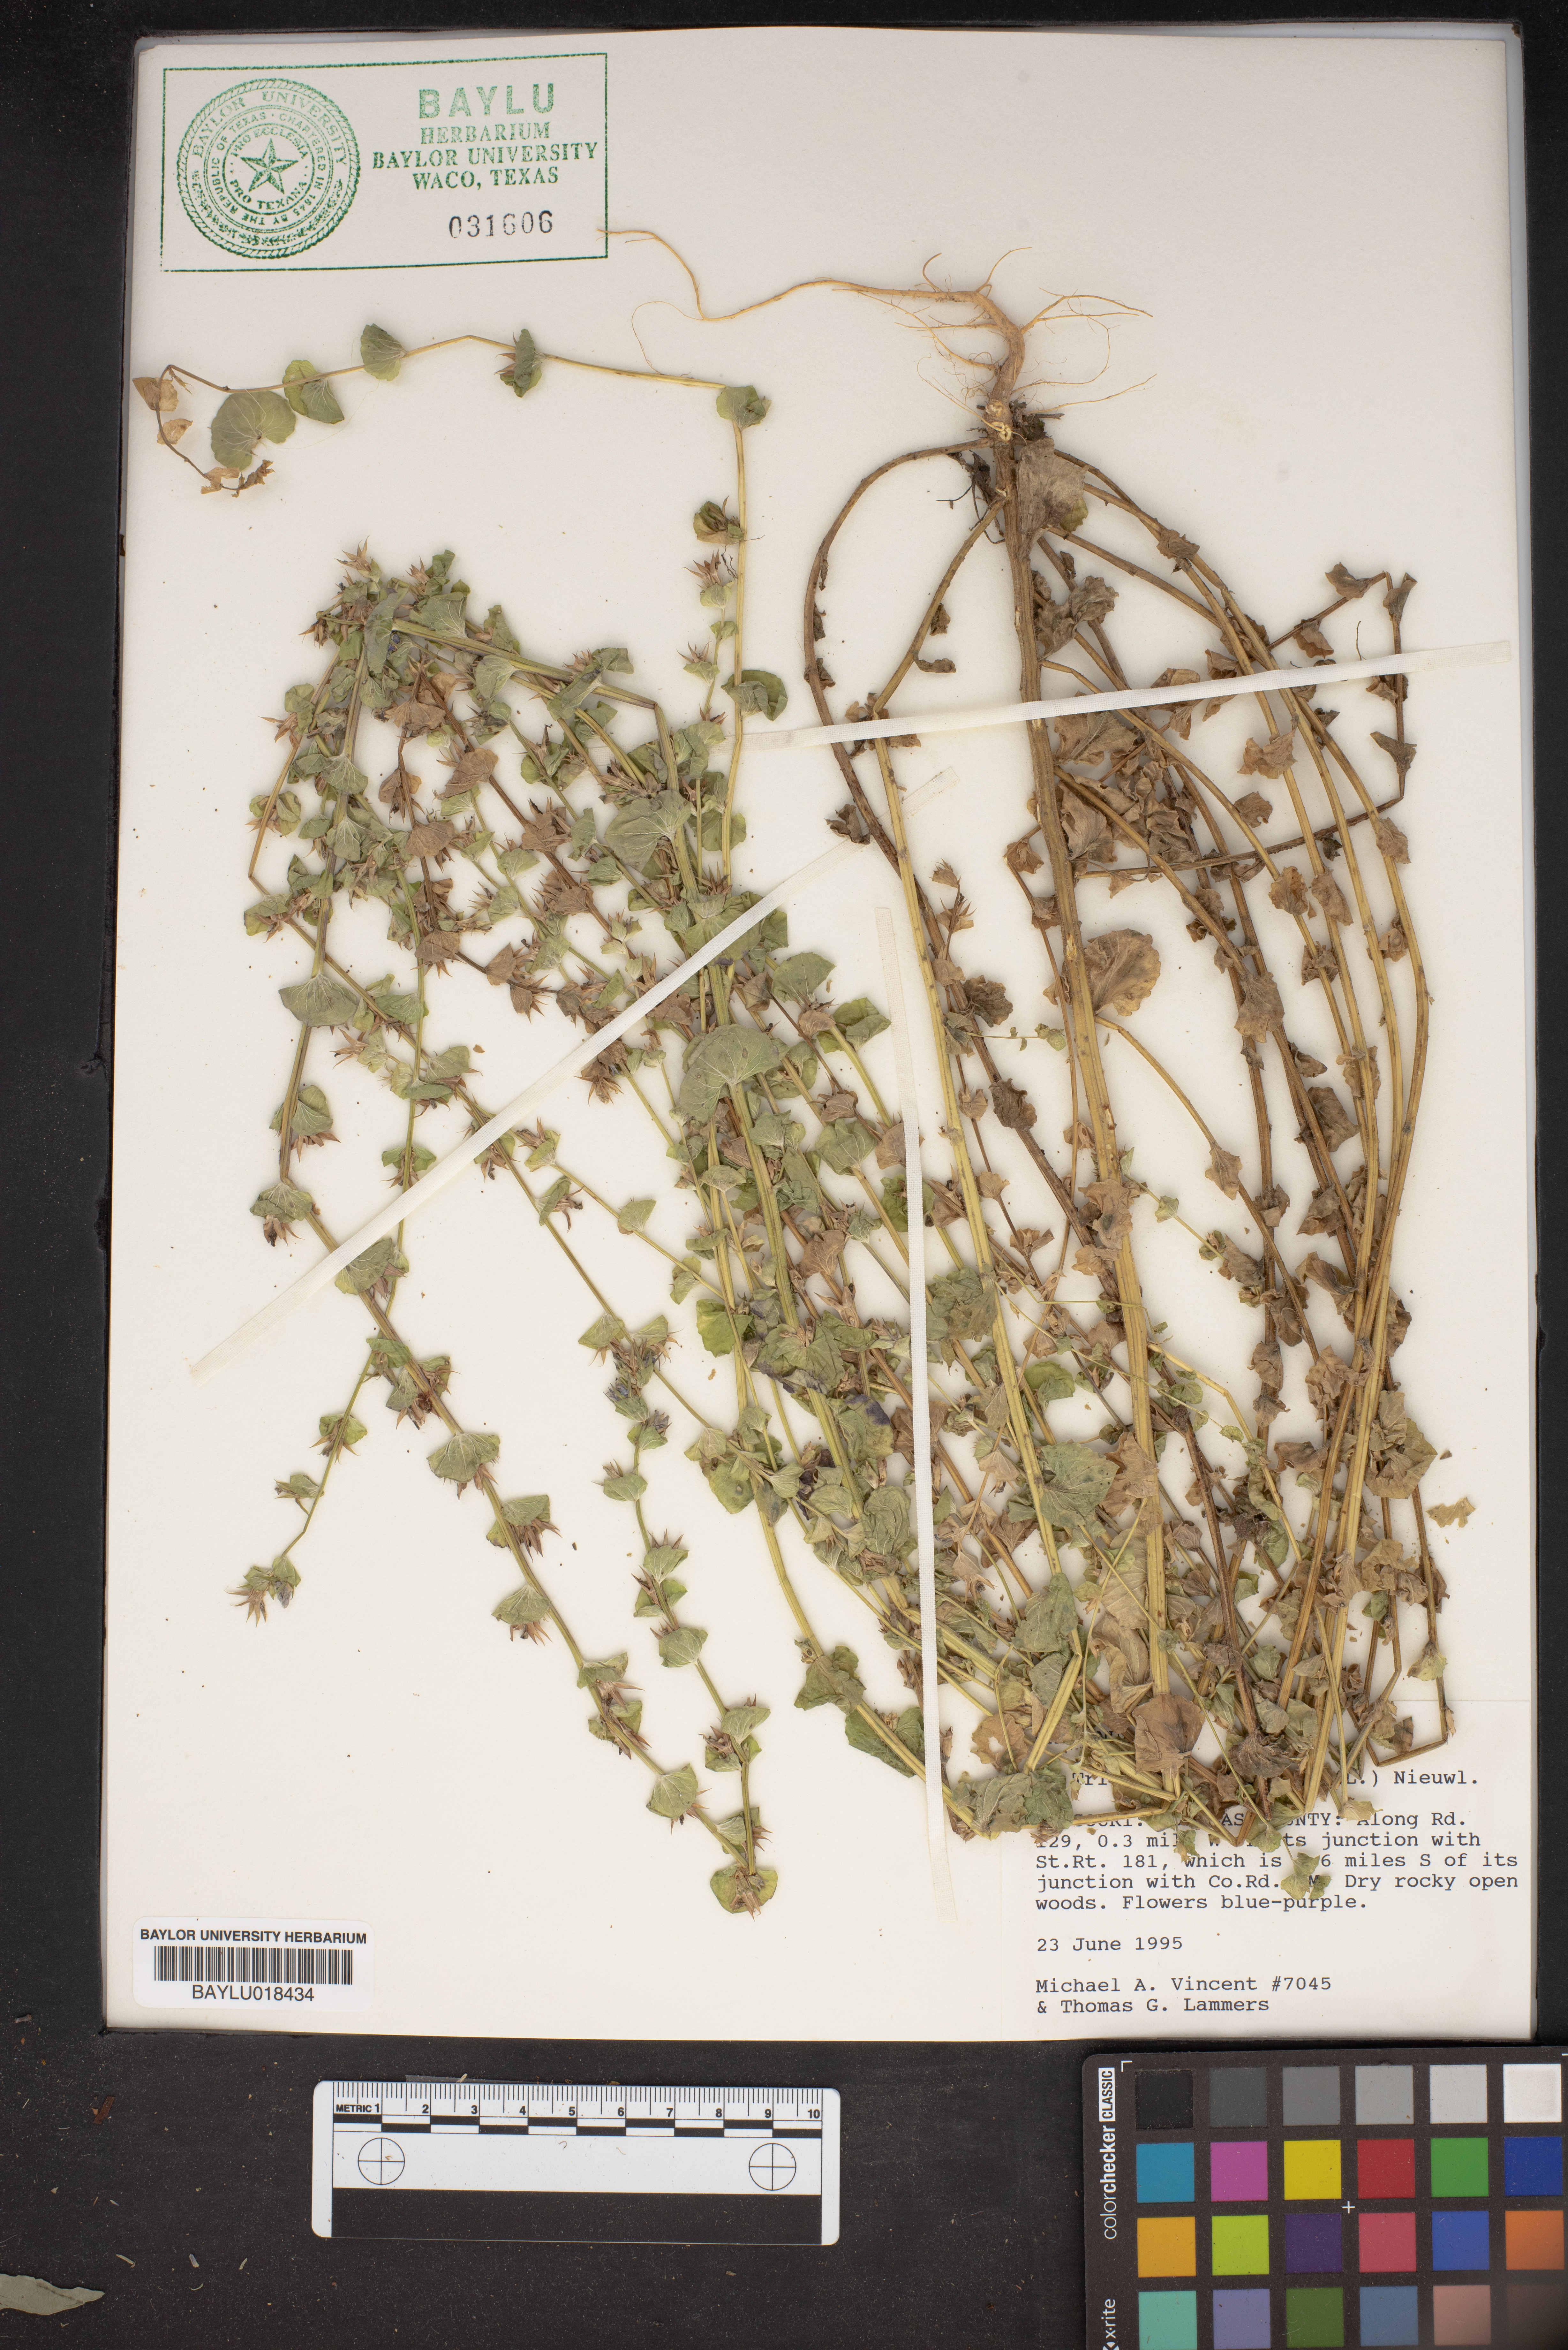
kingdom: Plantae
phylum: Tracheophyta
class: Magnoliopsida
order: Caryophyllales
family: Polygonaceae
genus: Eriogonum
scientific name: Eriogonum
